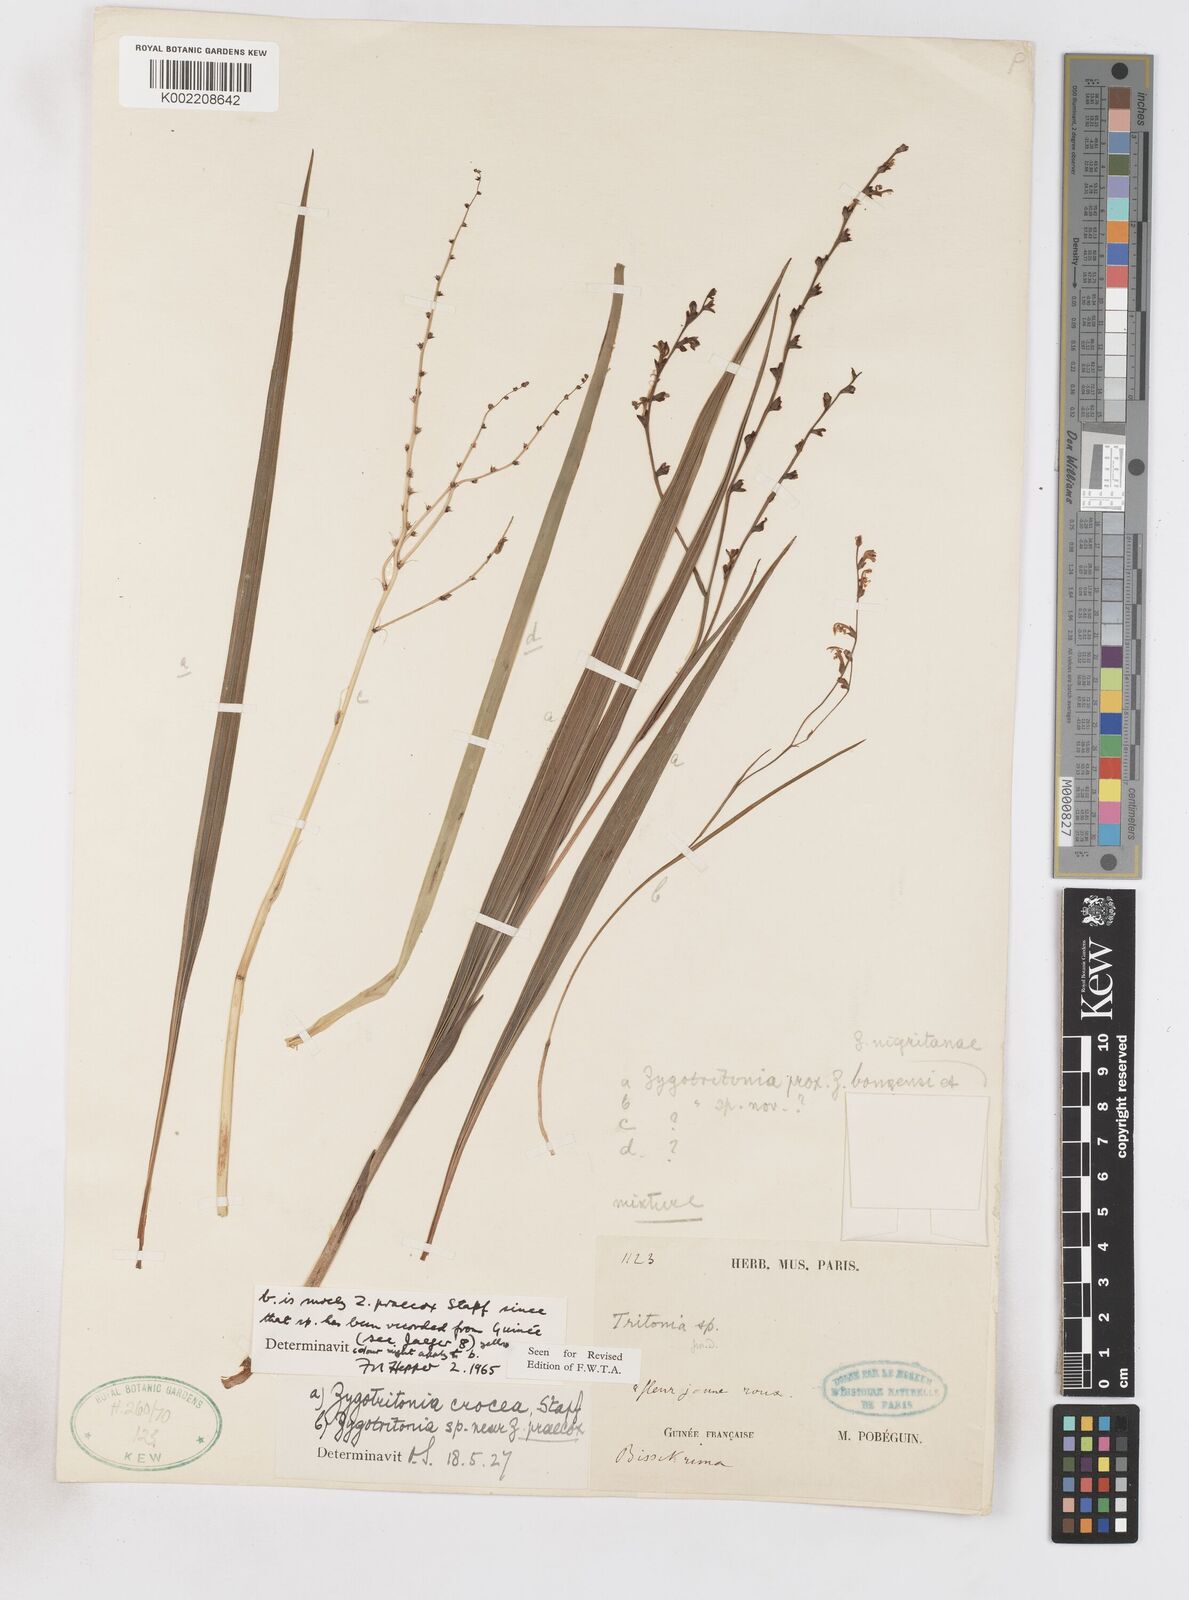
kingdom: Plantae
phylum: Tracheophyta
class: Liliopsida
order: Asparagales
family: Iridaceae
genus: Savannosiphon
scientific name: Savannosiphon
